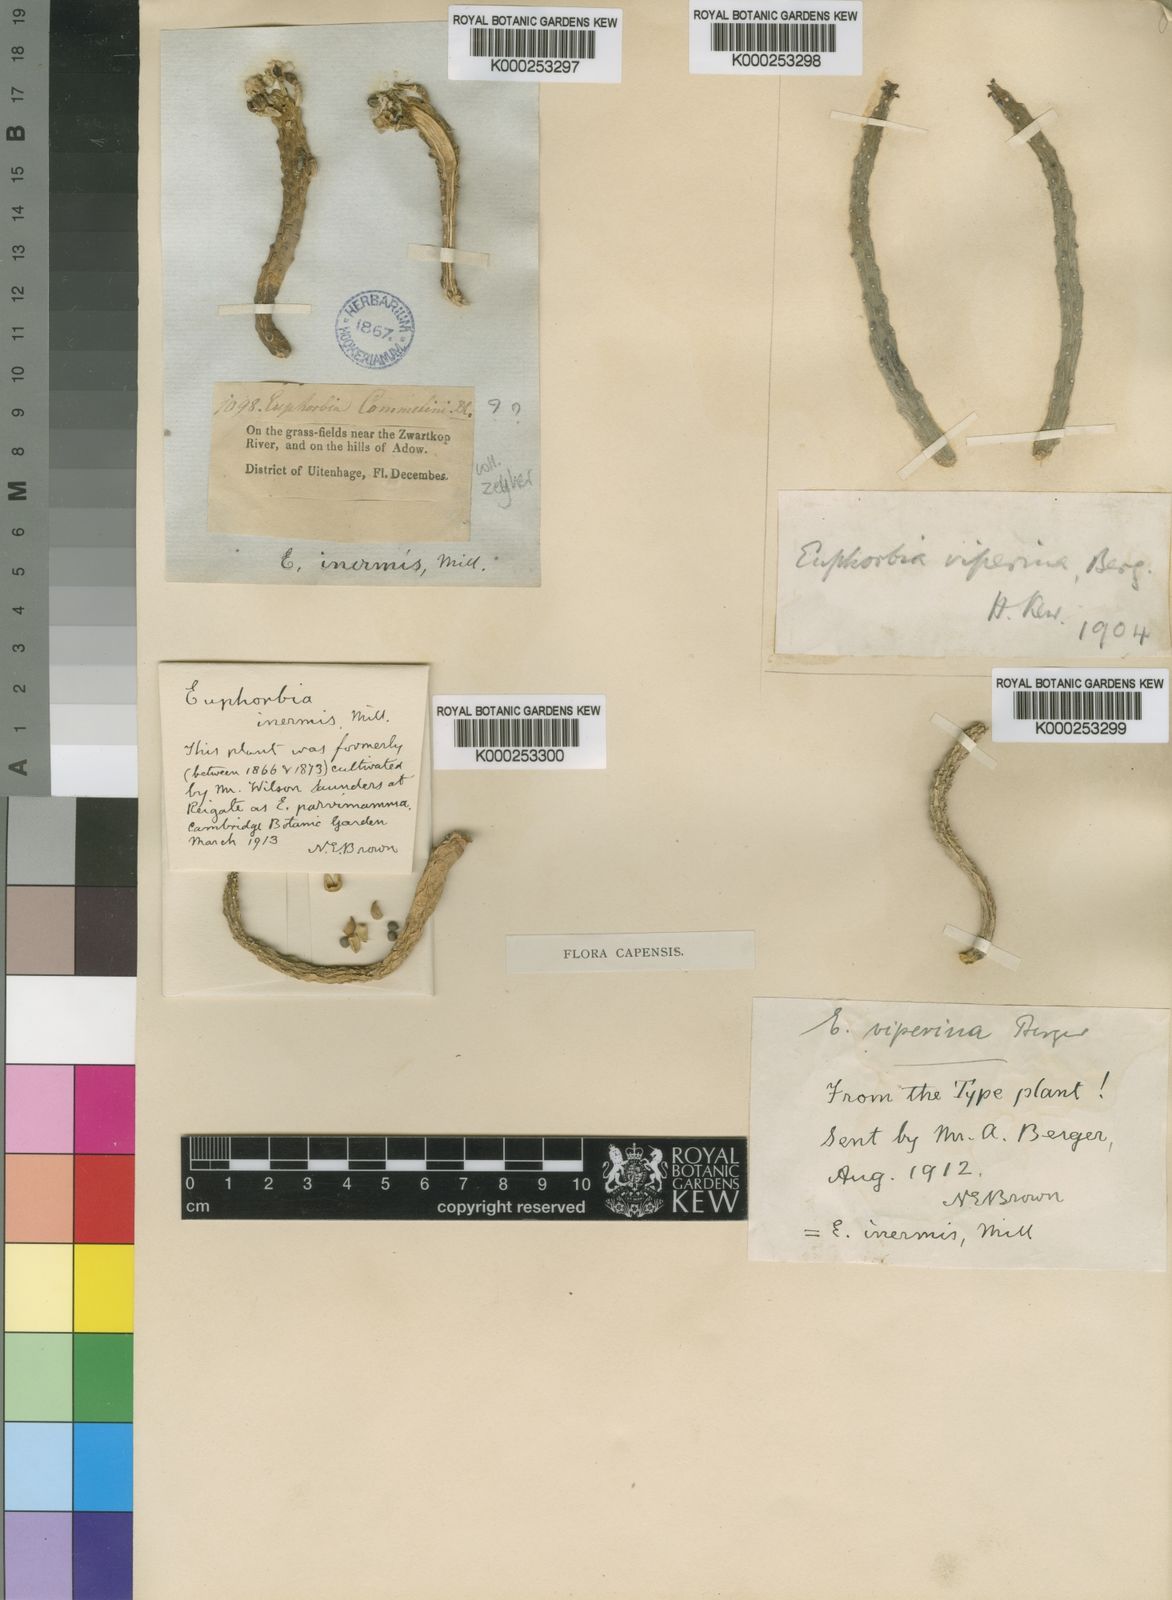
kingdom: Plantae
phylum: Tracheophyta
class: Magnoliopsida
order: Malpighiales
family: Euphorbiaceae
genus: Euphorbia
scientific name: Euphorbia inermis
